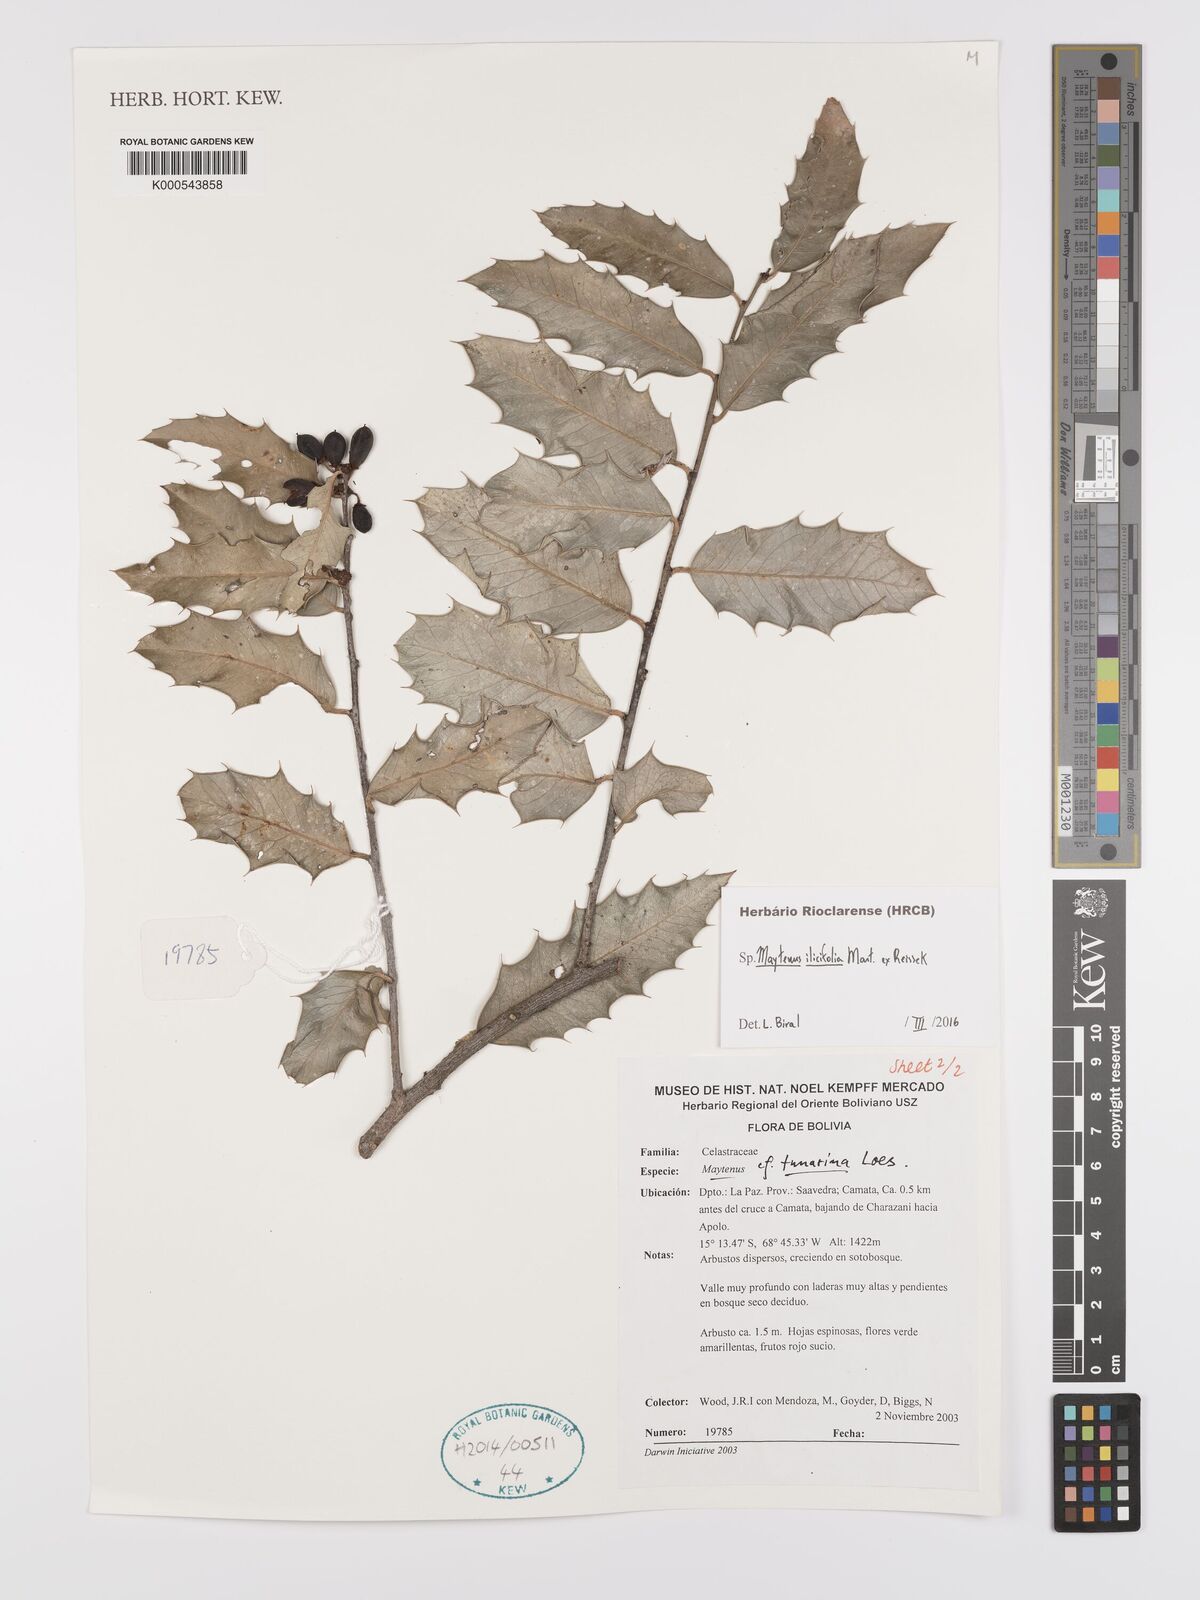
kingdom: Plantae
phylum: Tracheophyta
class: Magnoliopsida
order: Celastrales
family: Celastraceae
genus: Maytenus
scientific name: Maytenus
